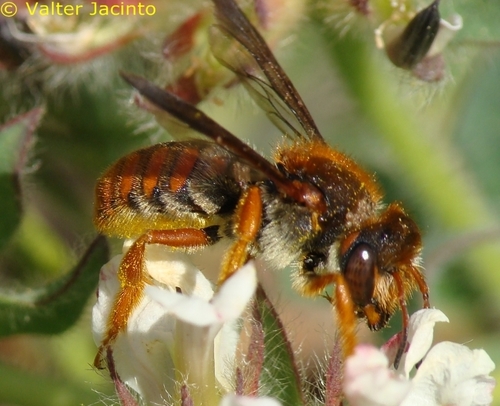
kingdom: Animalia
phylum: Arthropoda
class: Insecta
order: Hymenoptera
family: Megachilidae
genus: Rhodanthidium
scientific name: Rhodanthidium sticticum
